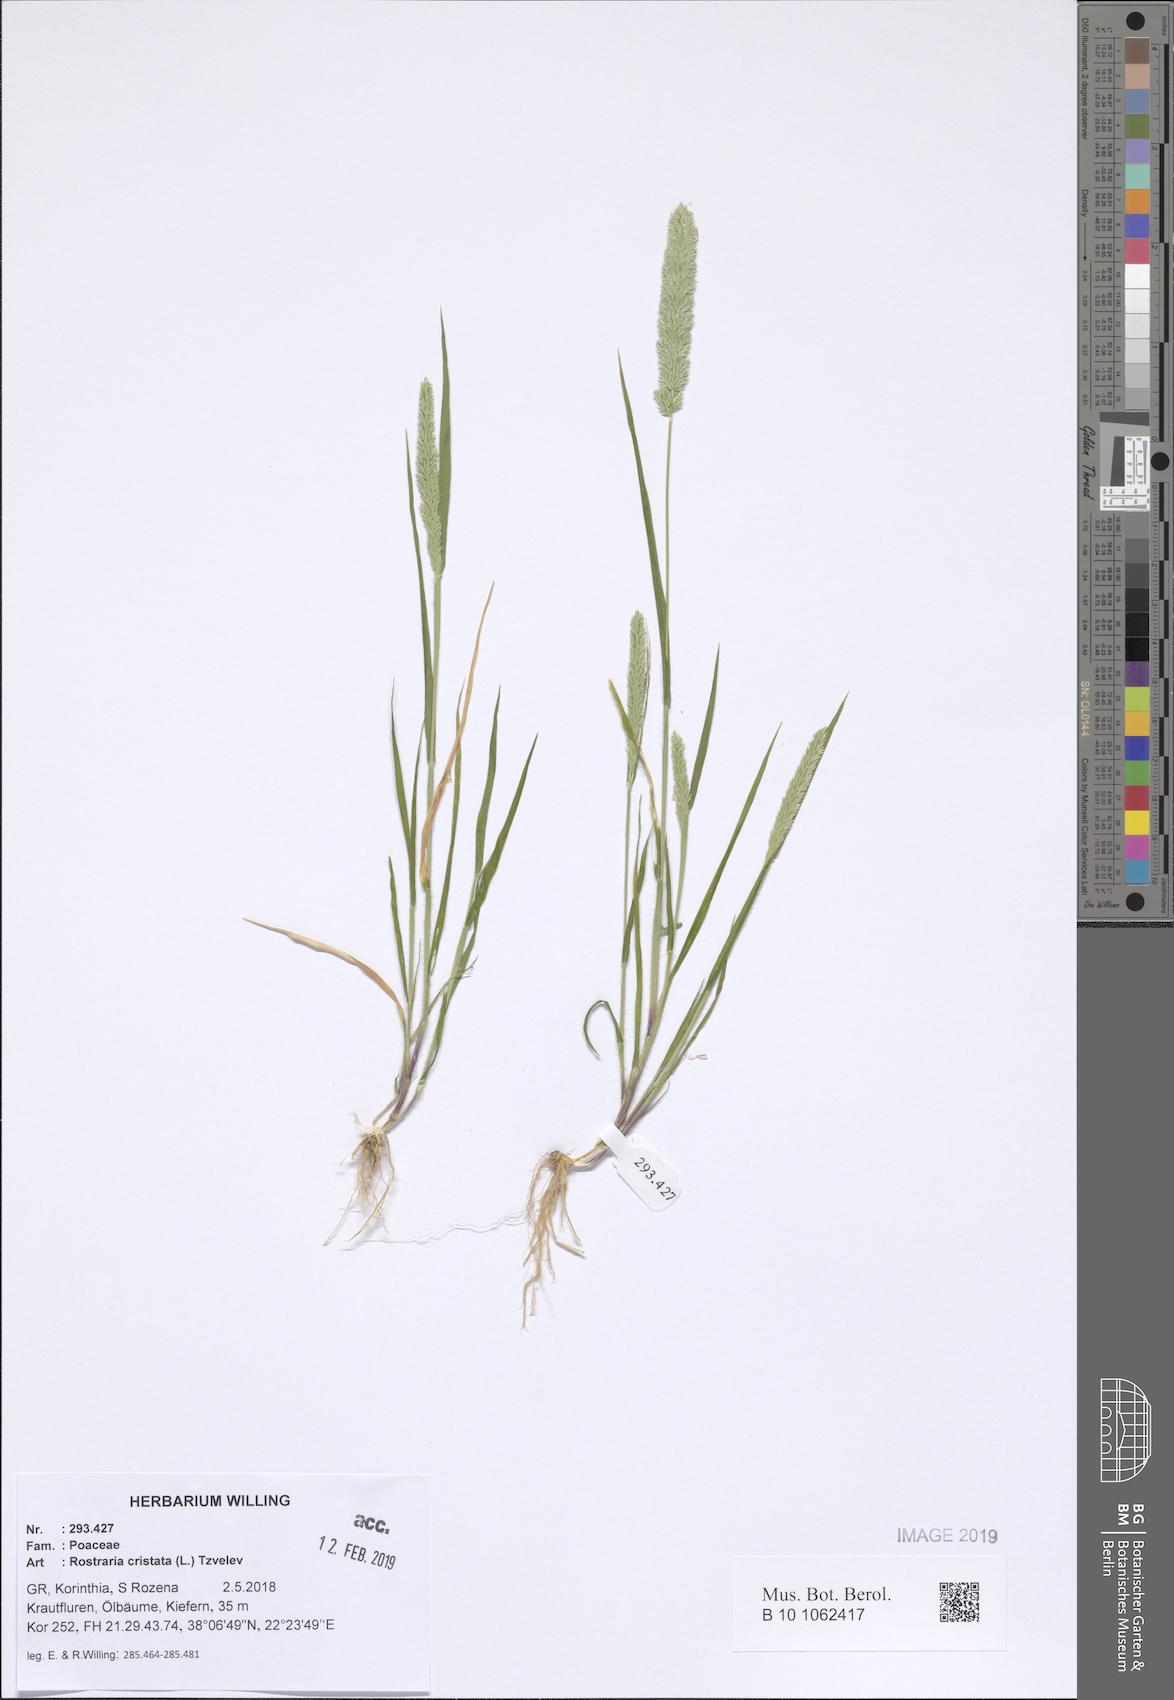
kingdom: Plantae
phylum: Tracheophyta
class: Liliopsida
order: Poales
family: Poaceae
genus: Rostraria
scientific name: Rostraria cristata
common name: Mediterranean hair-grass
